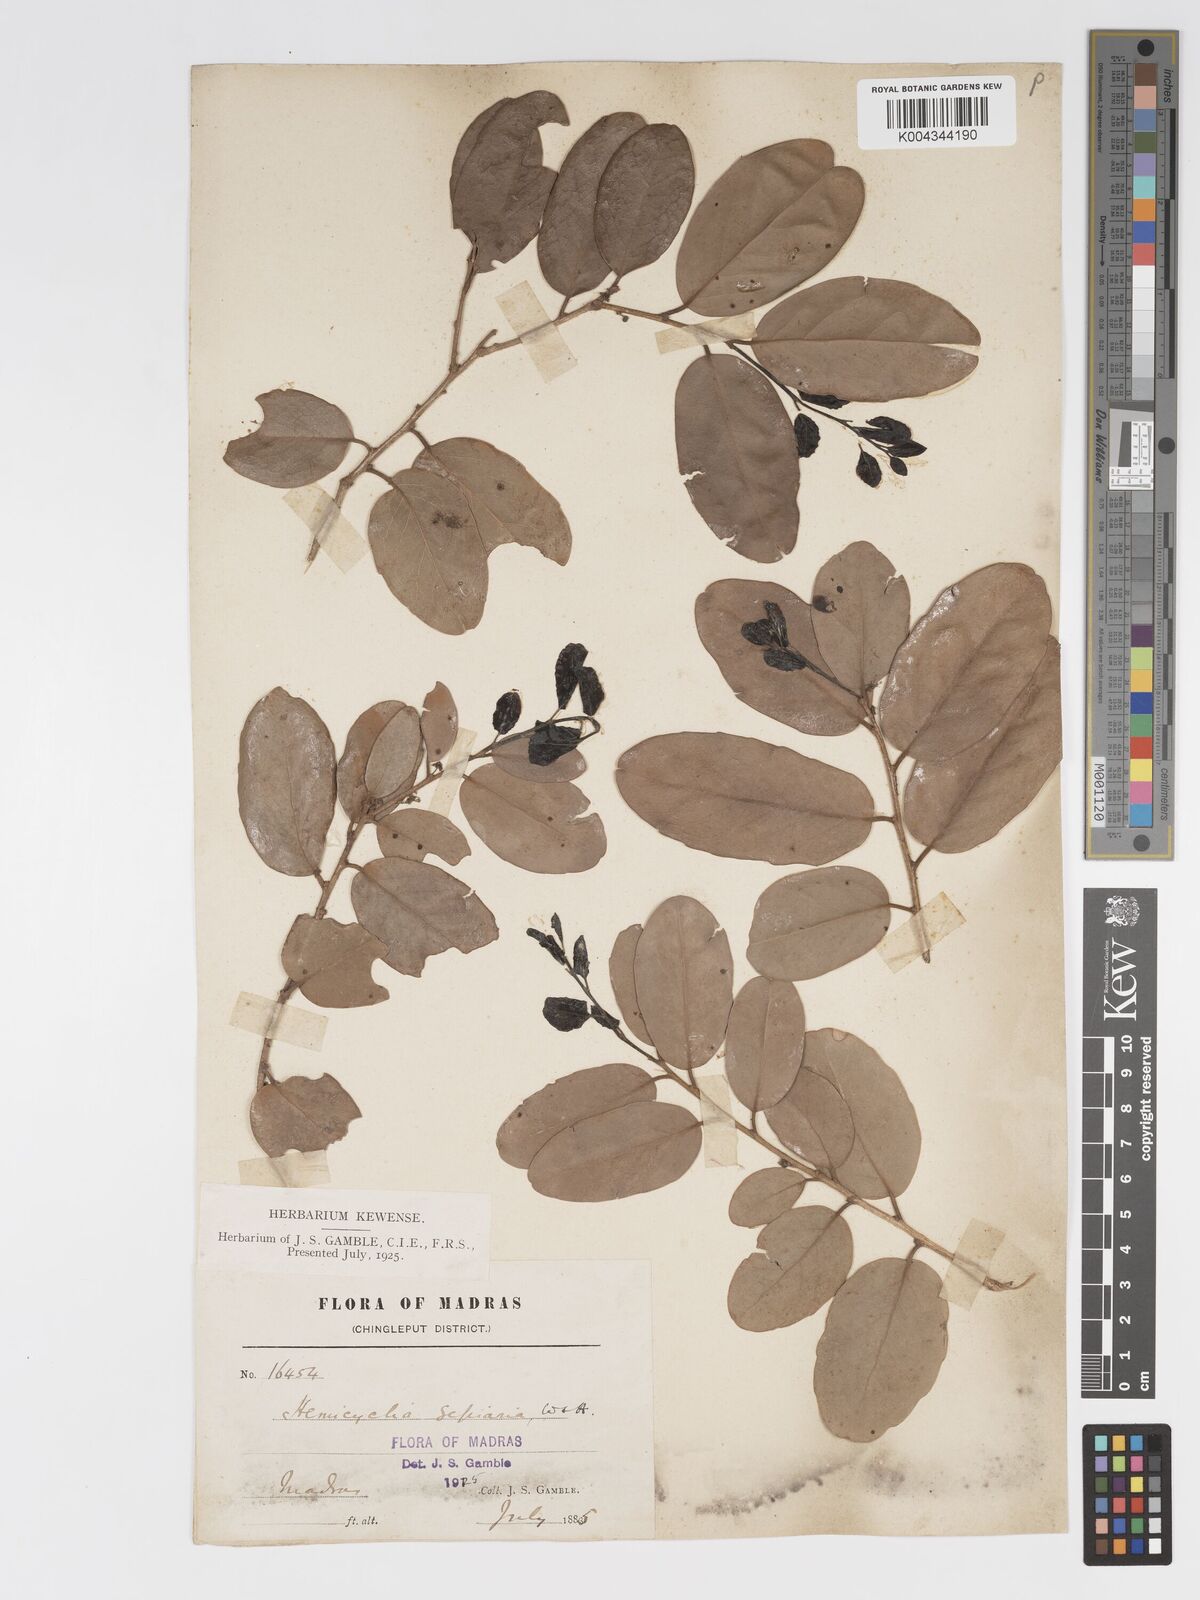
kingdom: Plantae
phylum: Tracheophyta
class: Magnoliopsida
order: Malpighiales
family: Putranjivaceae
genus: Drypetes
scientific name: Drypetes sepiaria
